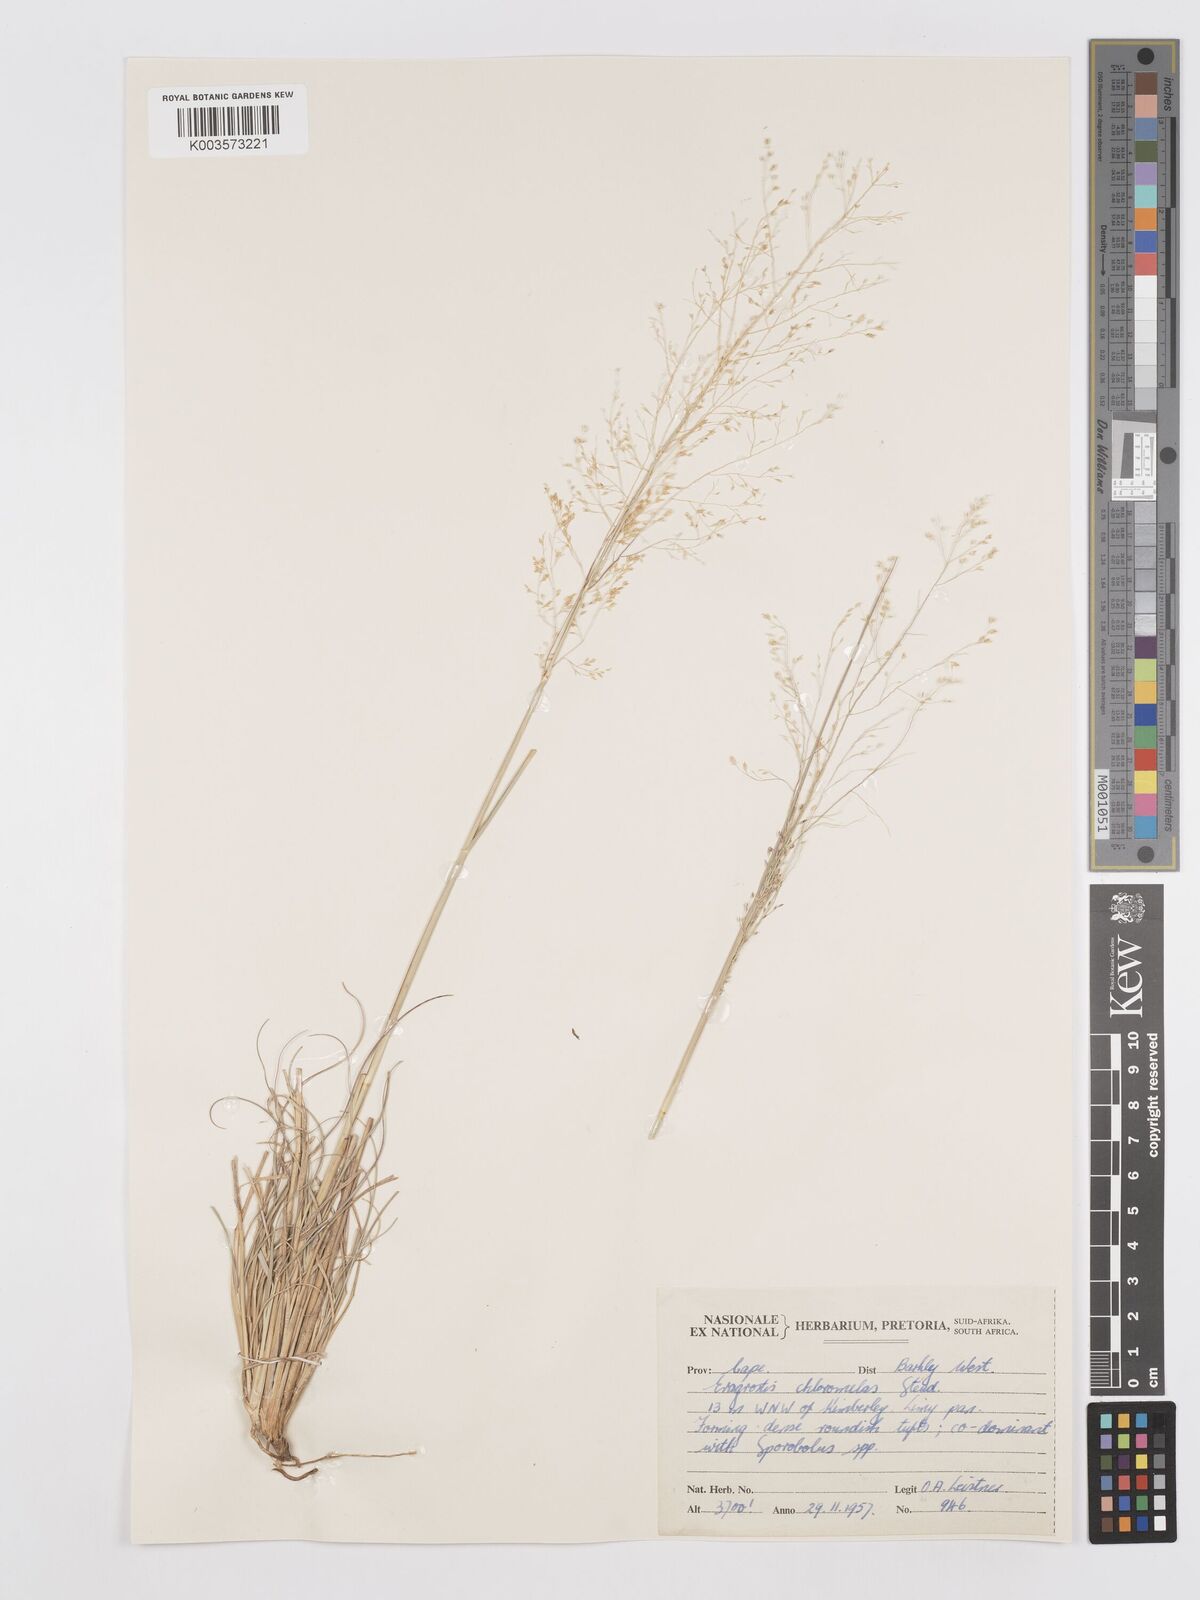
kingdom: Plantae
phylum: Tracheophyta
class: Liliopsida
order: Poales
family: Poaceae
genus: Eragrostis
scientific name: Eragrostis curvula
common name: African love-grass
